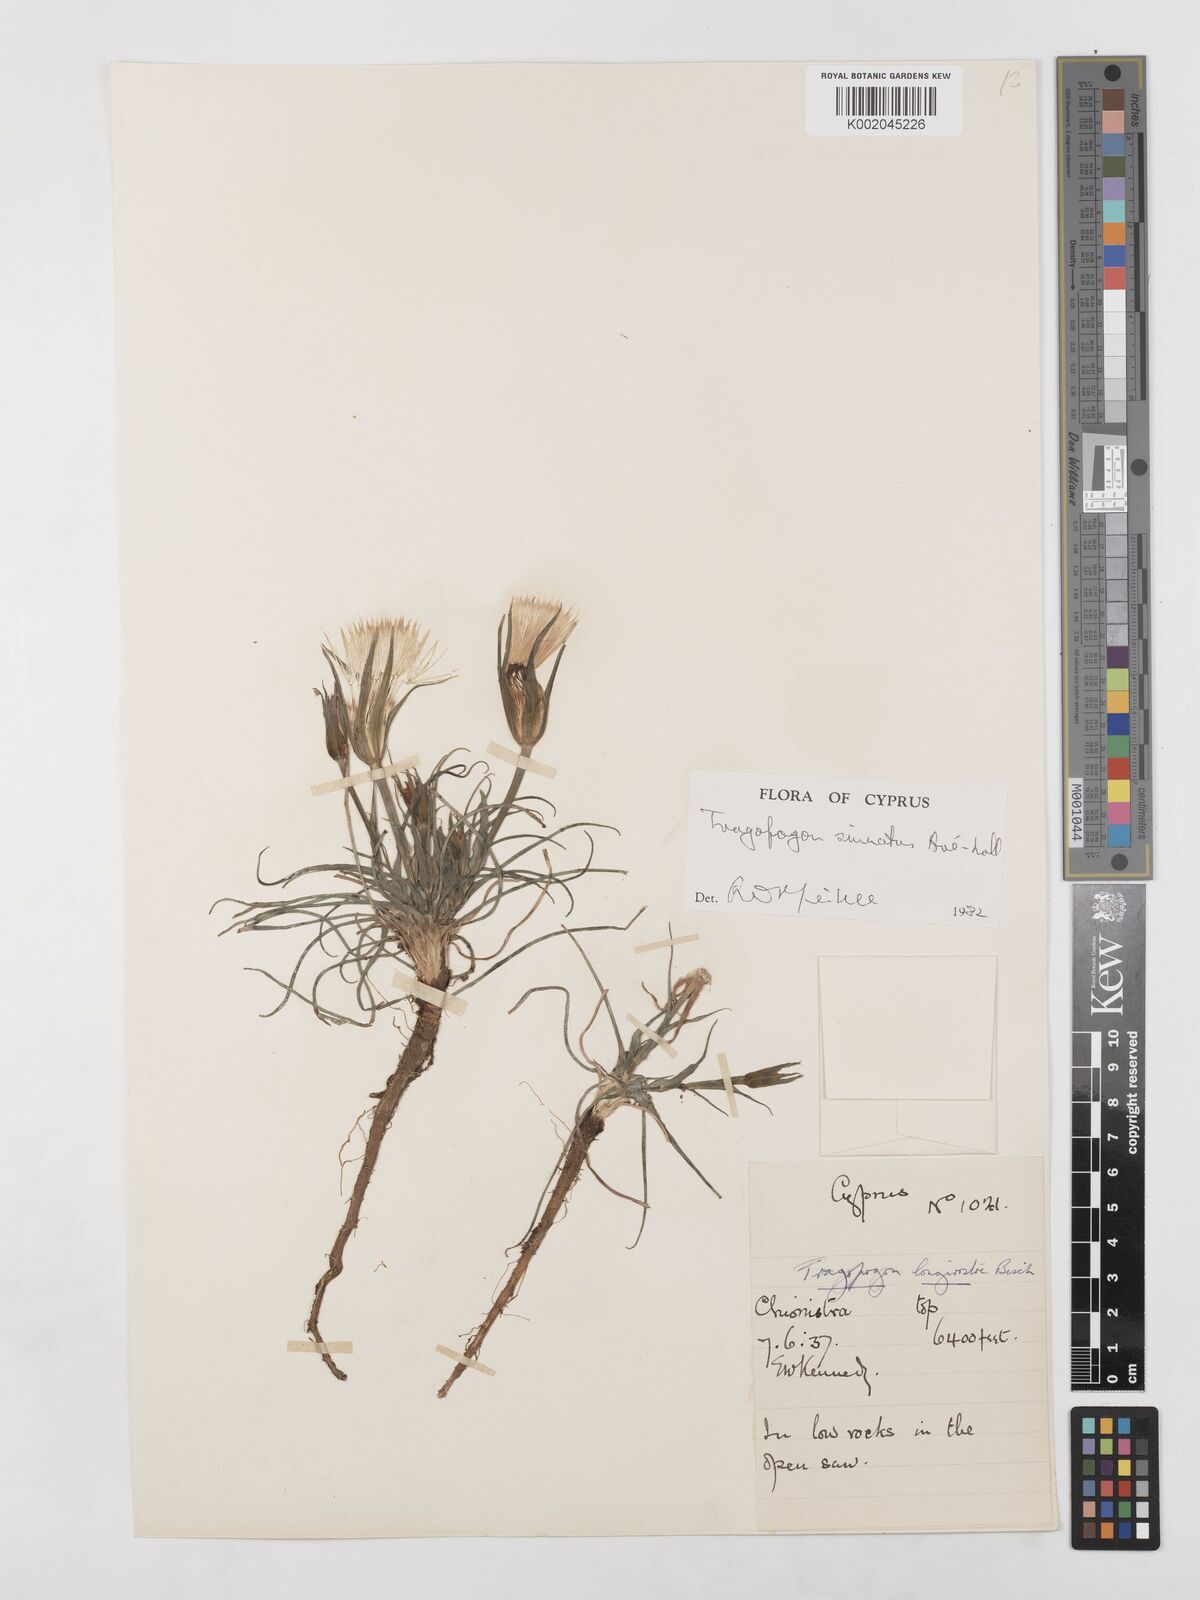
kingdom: Plantae
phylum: Tracheophyta
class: Magnoliopsida
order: Asterales
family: Asteraceae
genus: Tragopogon
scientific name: Tragopogon porrifolius
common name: Salsify
